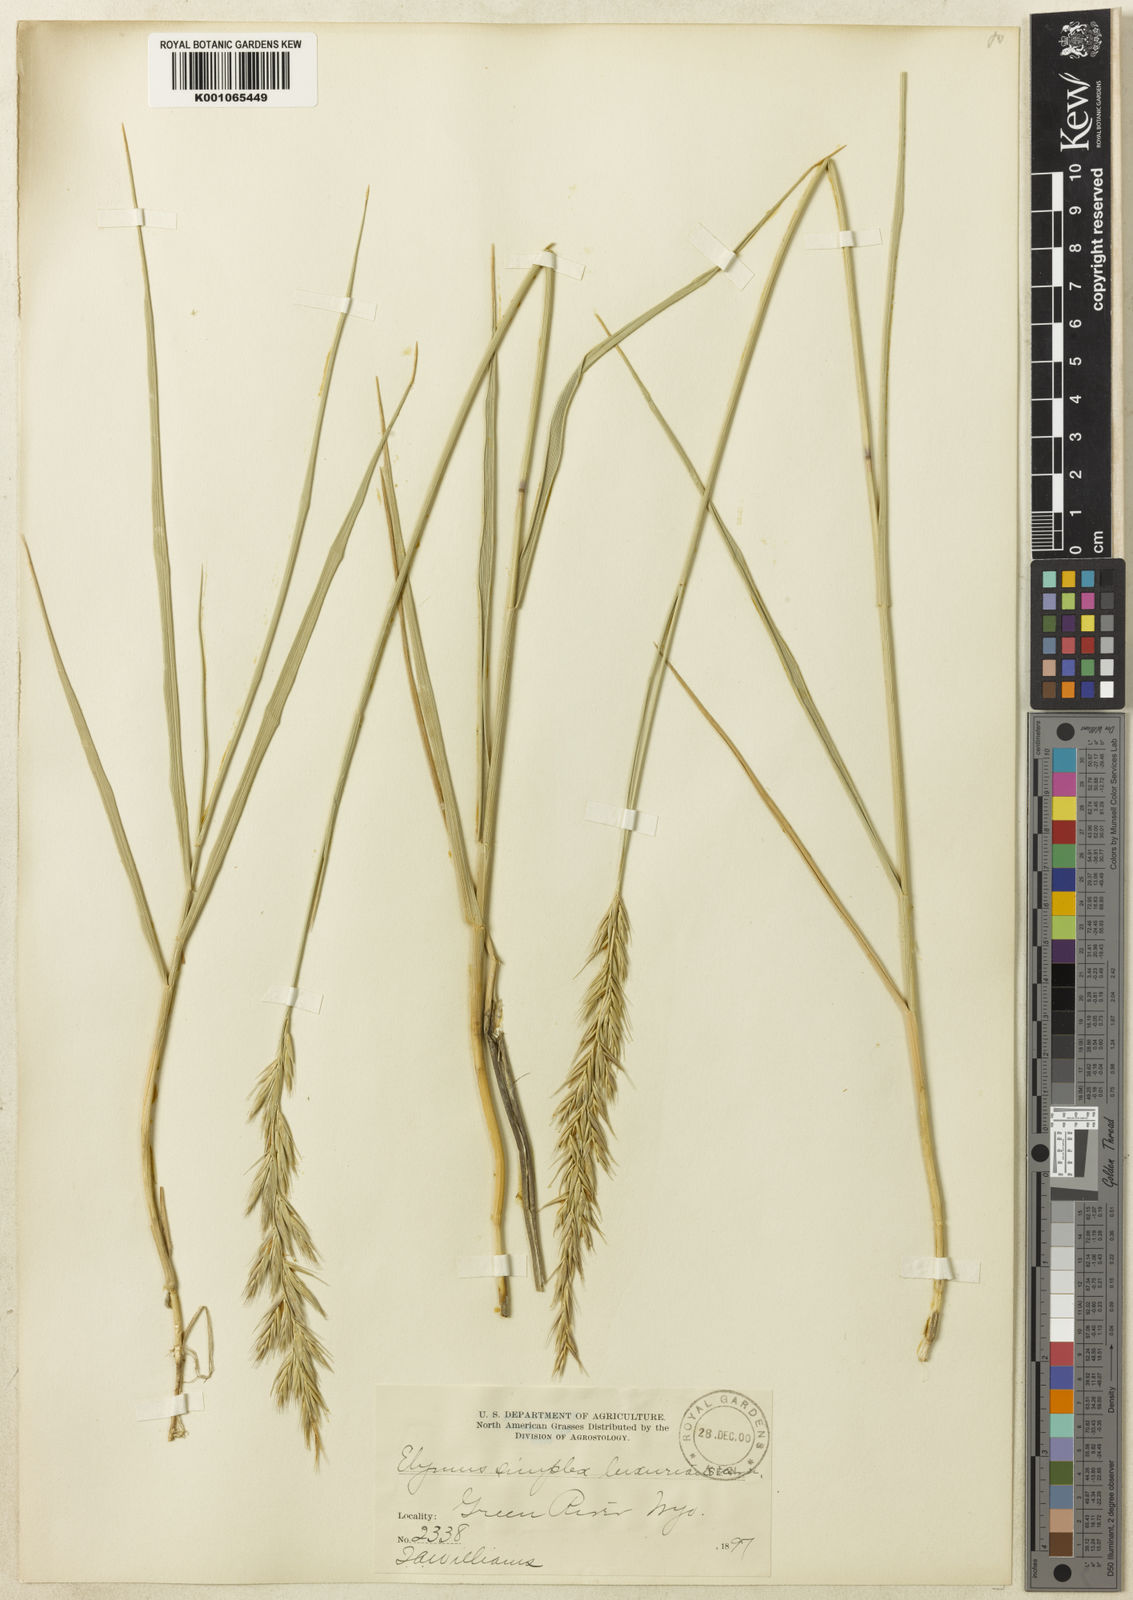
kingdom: Plantae
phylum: Tracheophyta
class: Liliopsida
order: Poales
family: Poaceae
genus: Leymus
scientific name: Leymus triticoides
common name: Beardless wild rye
